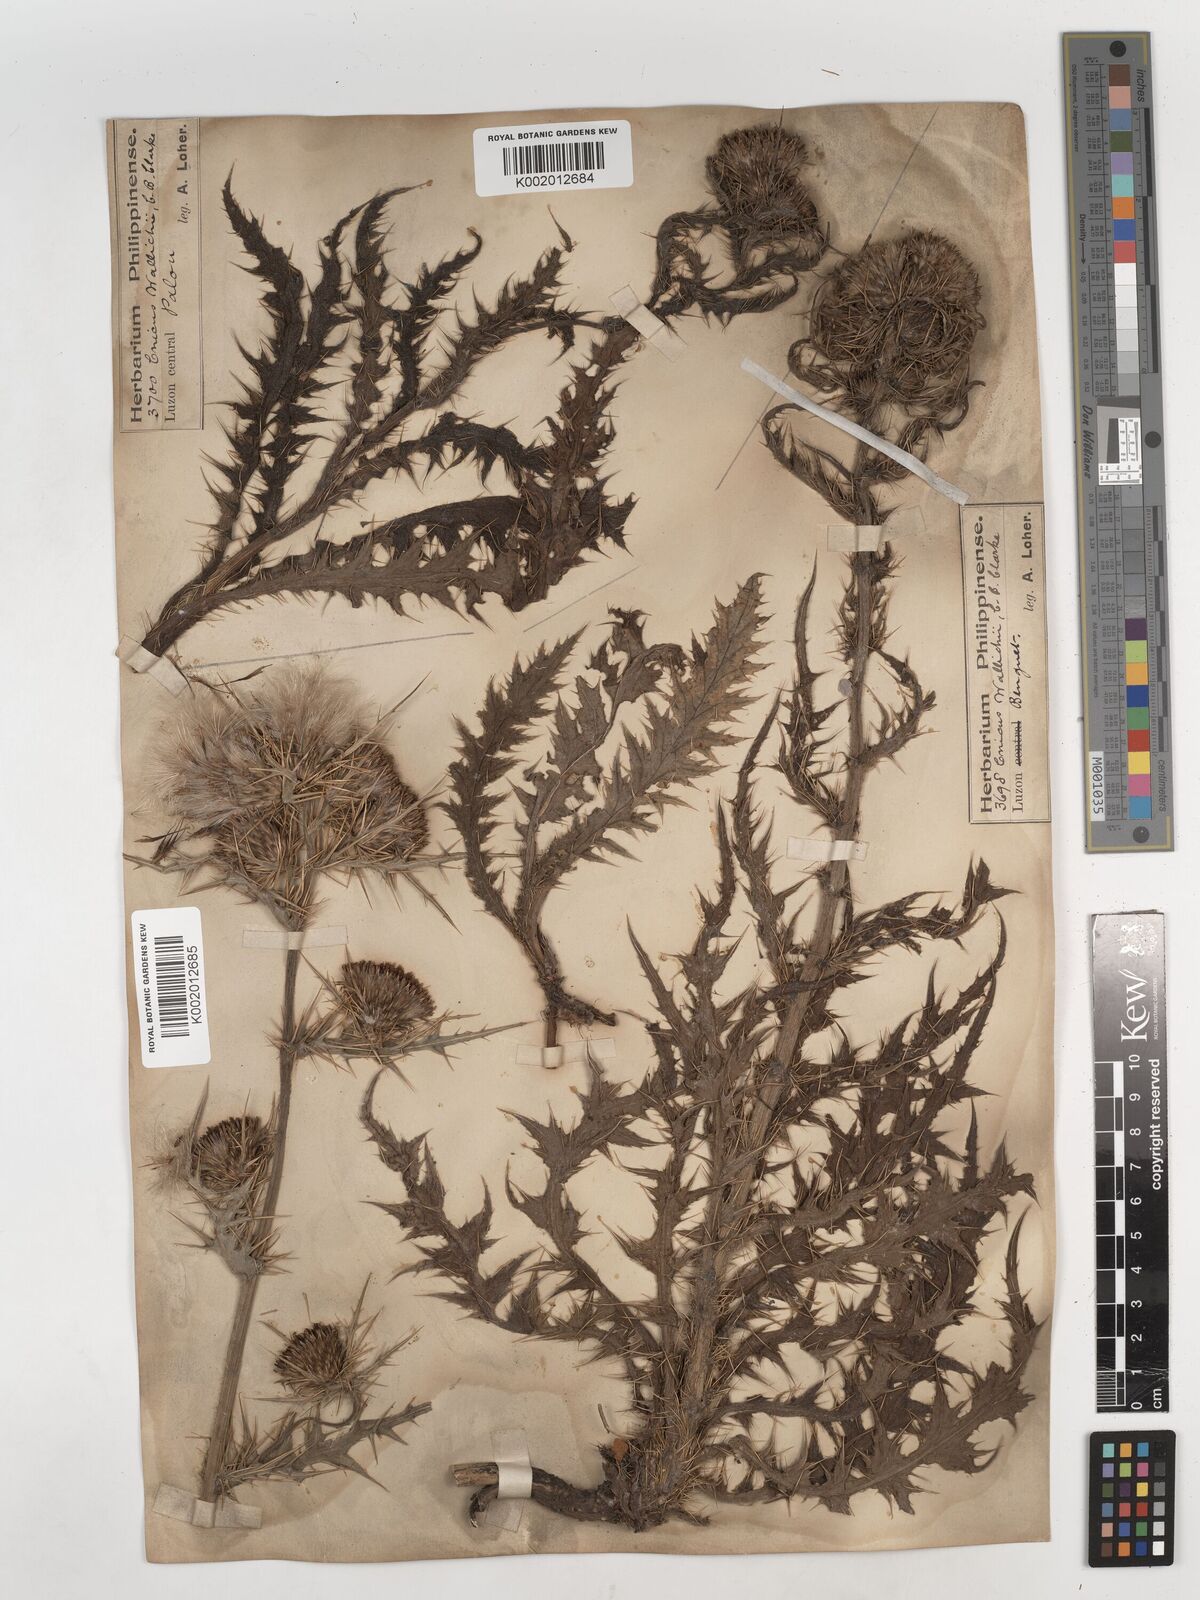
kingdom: Plantae
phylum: Tracheophyta
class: Magnoliopsida
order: Asterales
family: Asteraceae
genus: Cirsium
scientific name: Cirsium wallichii
